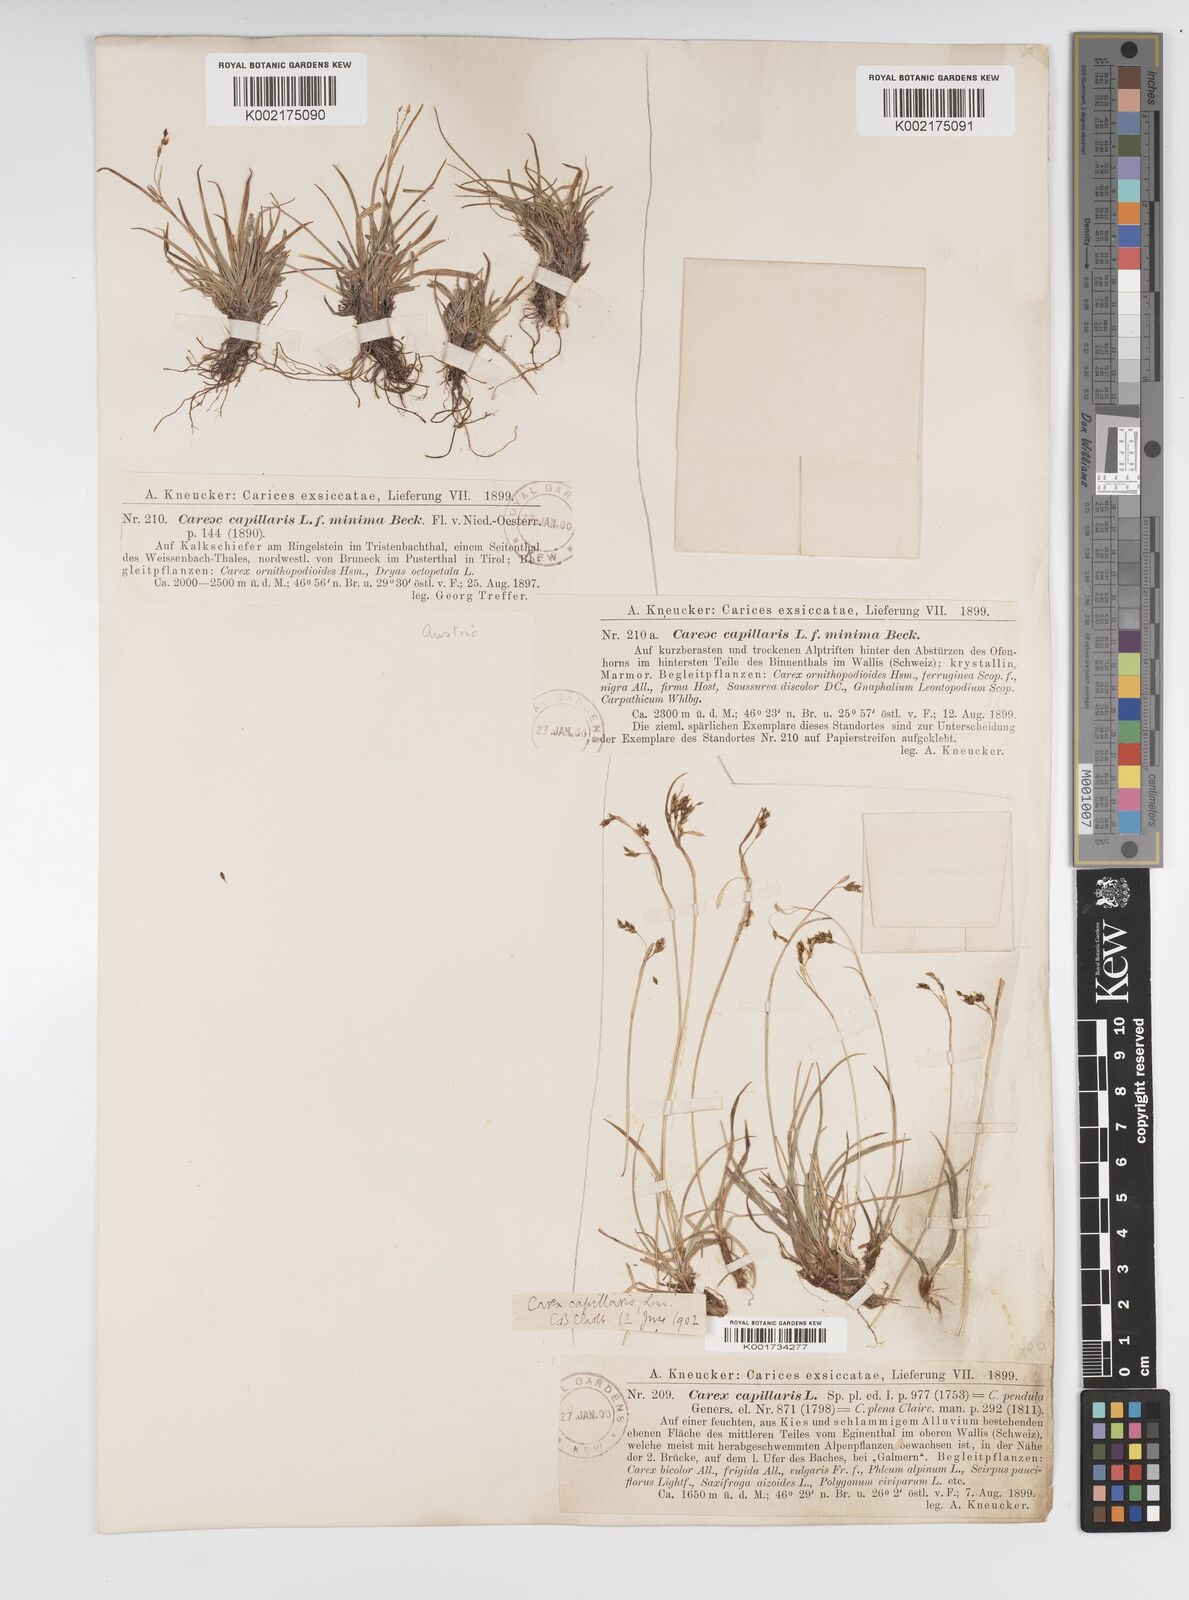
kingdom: Plantae
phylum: Tracheophyta
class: Liliopsida
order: Poales
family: Cyperaceae
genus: Carex
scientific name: Carex capillaris
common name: Hair sedge
